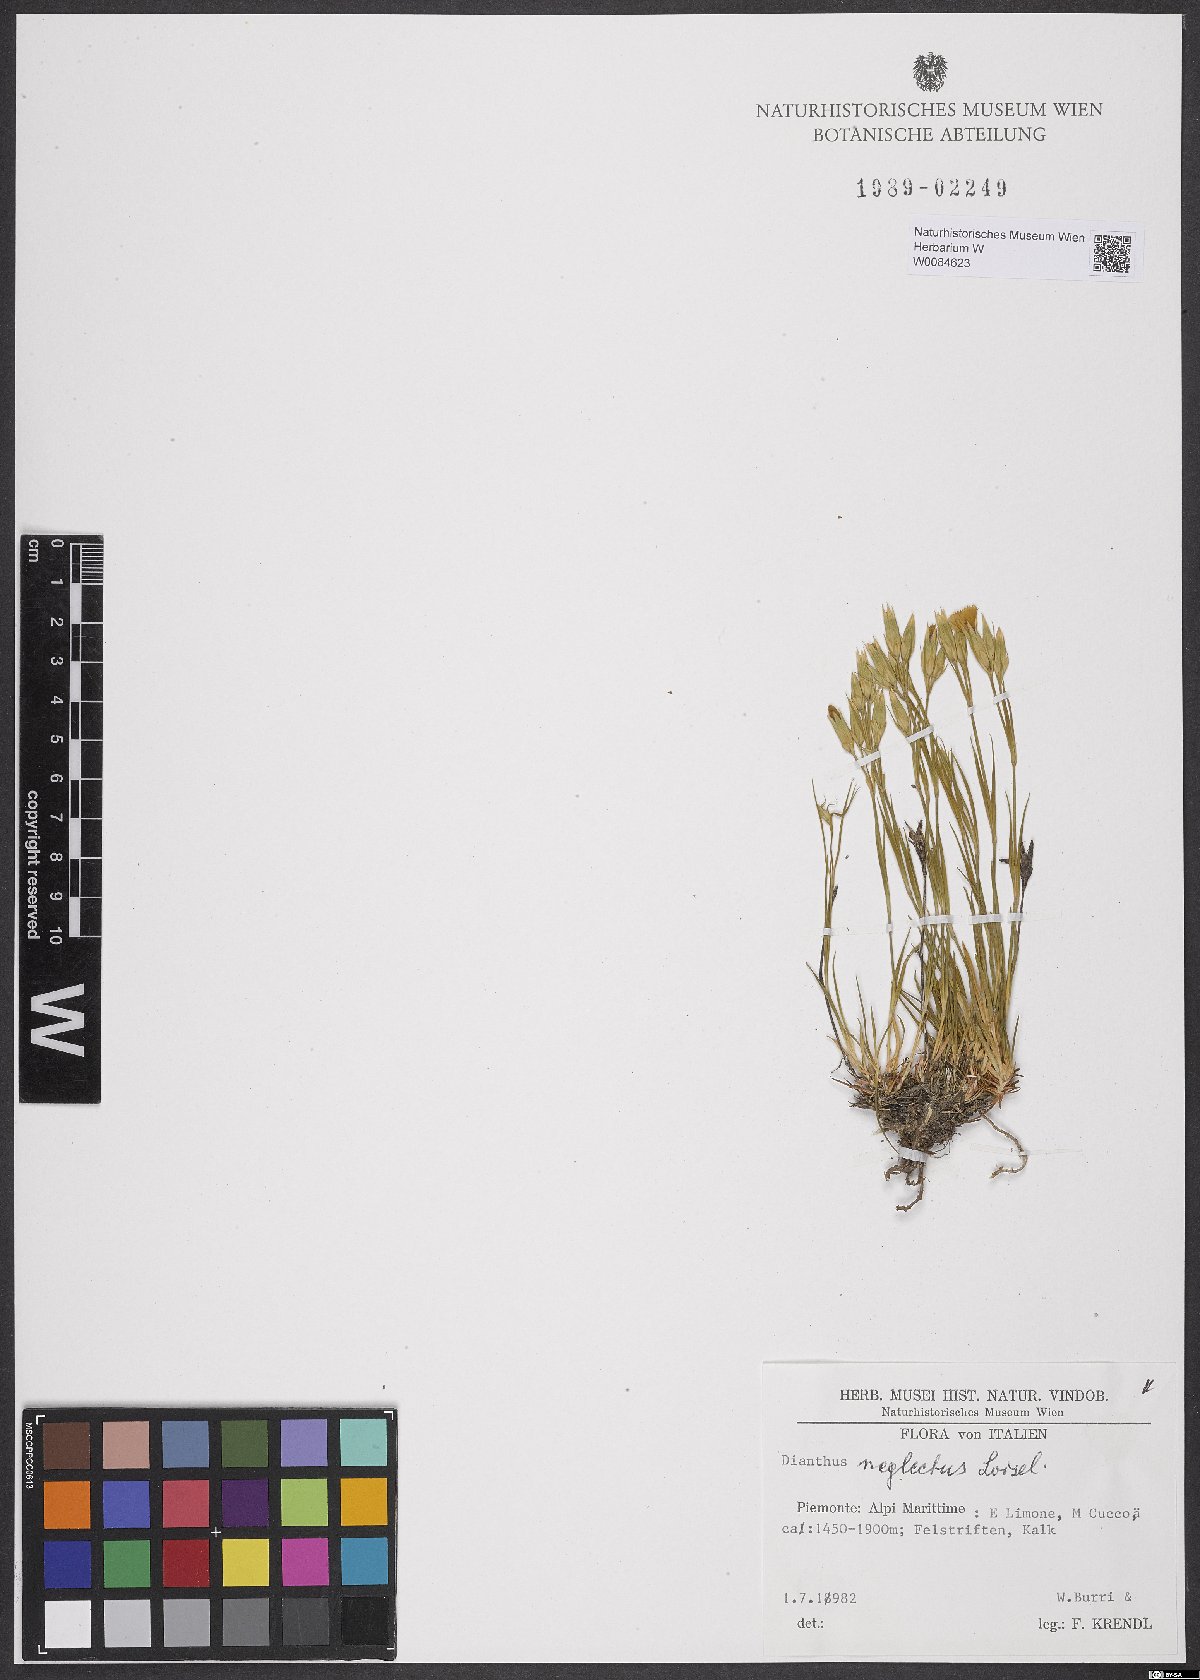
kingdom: Plantae
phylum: Tracheophyta
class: Magnoliopsida
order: Caryophyllales
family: Caryophyllaceae
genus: Dianthus
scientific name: Dianthus seguieri
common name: Ragged pink
